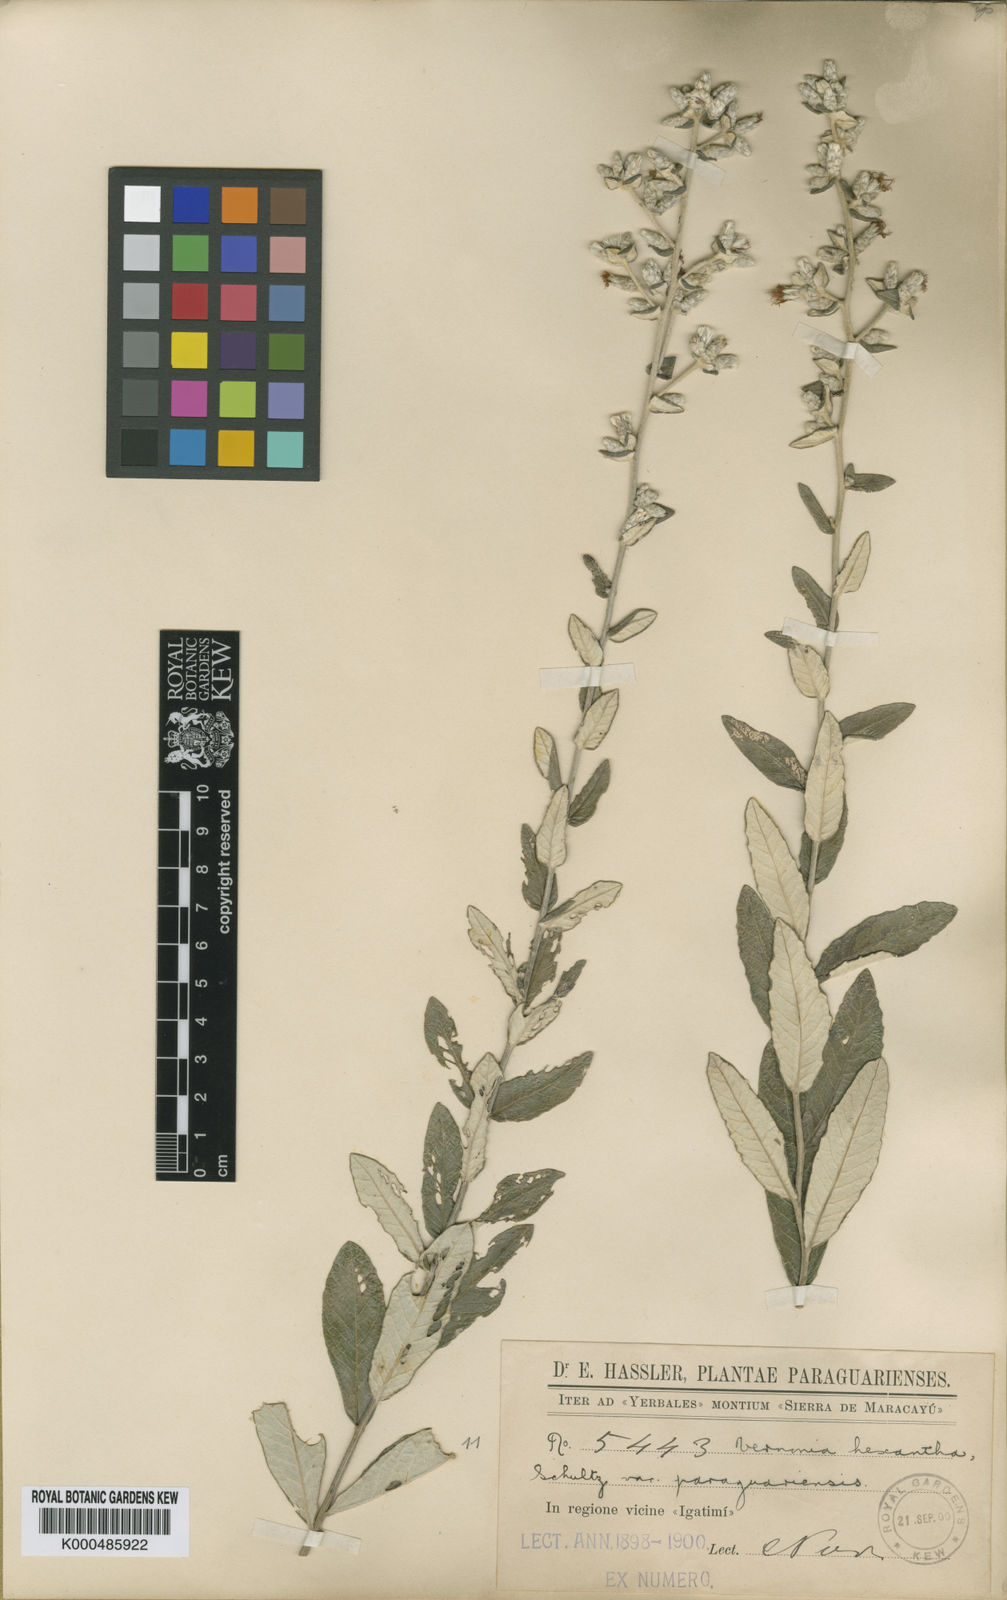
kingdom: Plantae
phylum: Tracheophyta
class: Magnoliopsida
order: Asterales
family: Asteraceae
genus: Stenocephalum
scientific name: Stenocephalum hexanthum
